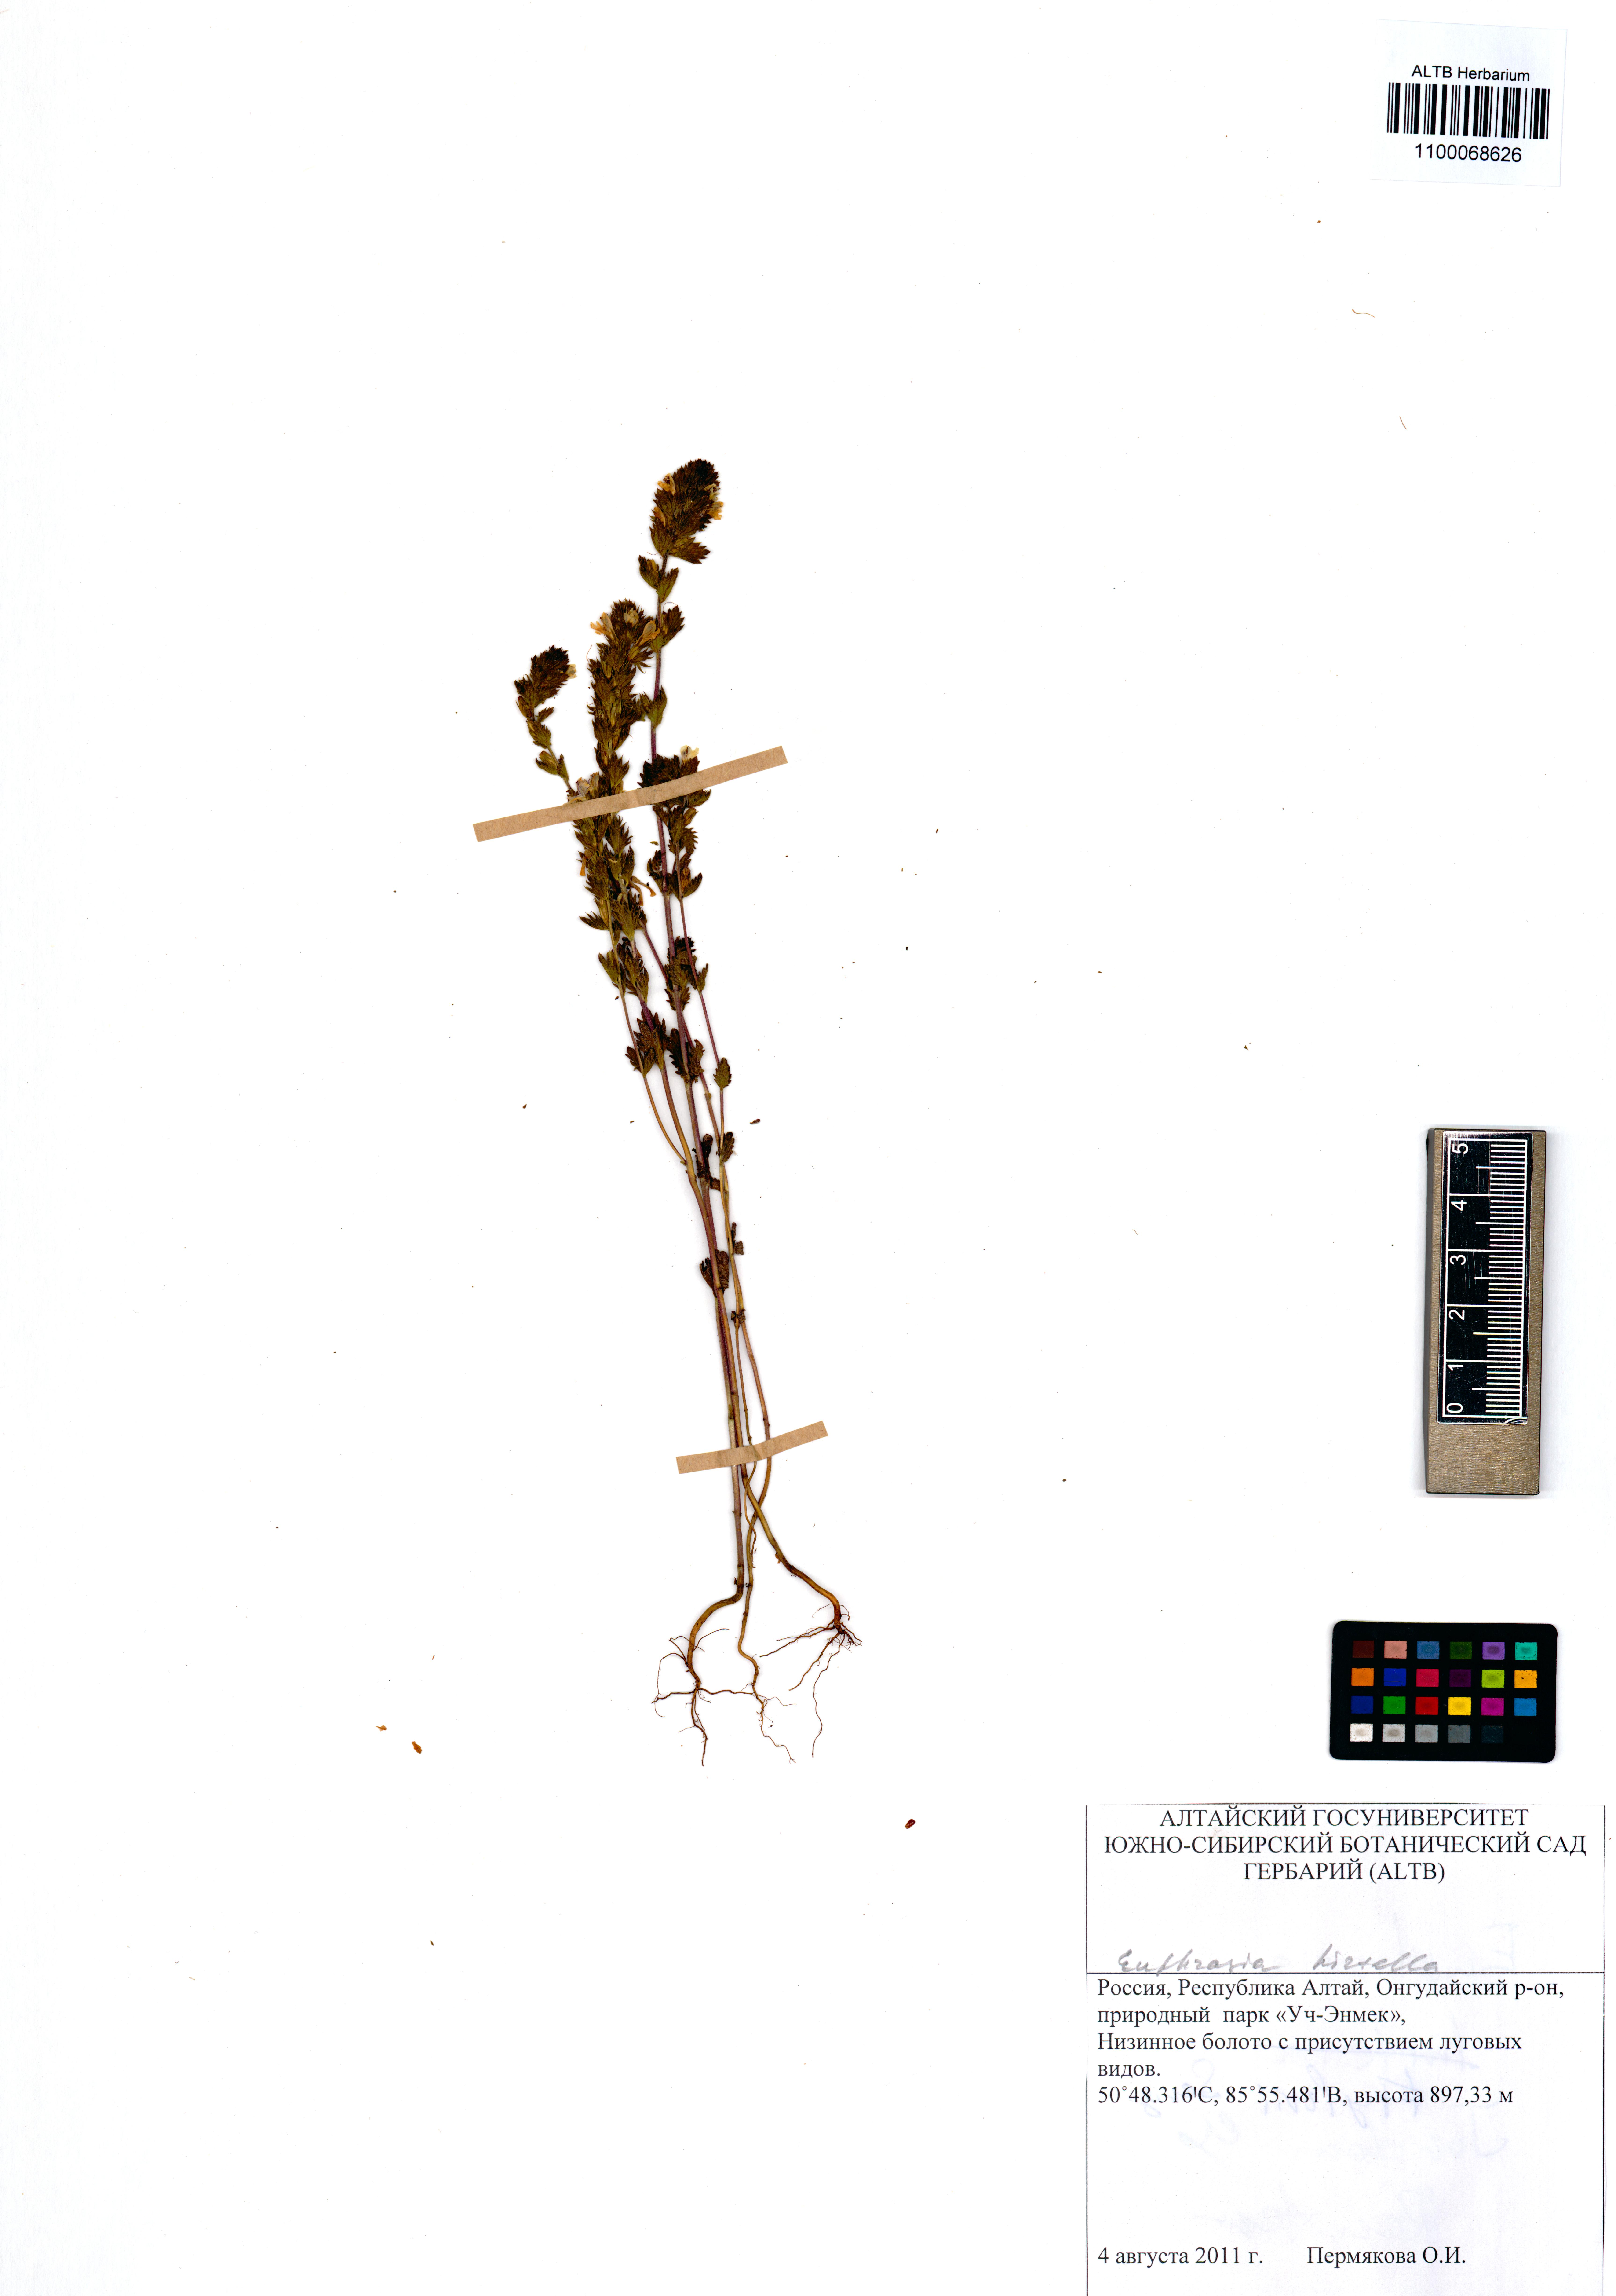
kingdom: Plantae
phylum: Tracheophyta
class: Magnoliopsida
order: Lamiales
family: Orobanchaceae
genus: Euphrasia
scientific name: Euphrasia hirtella
